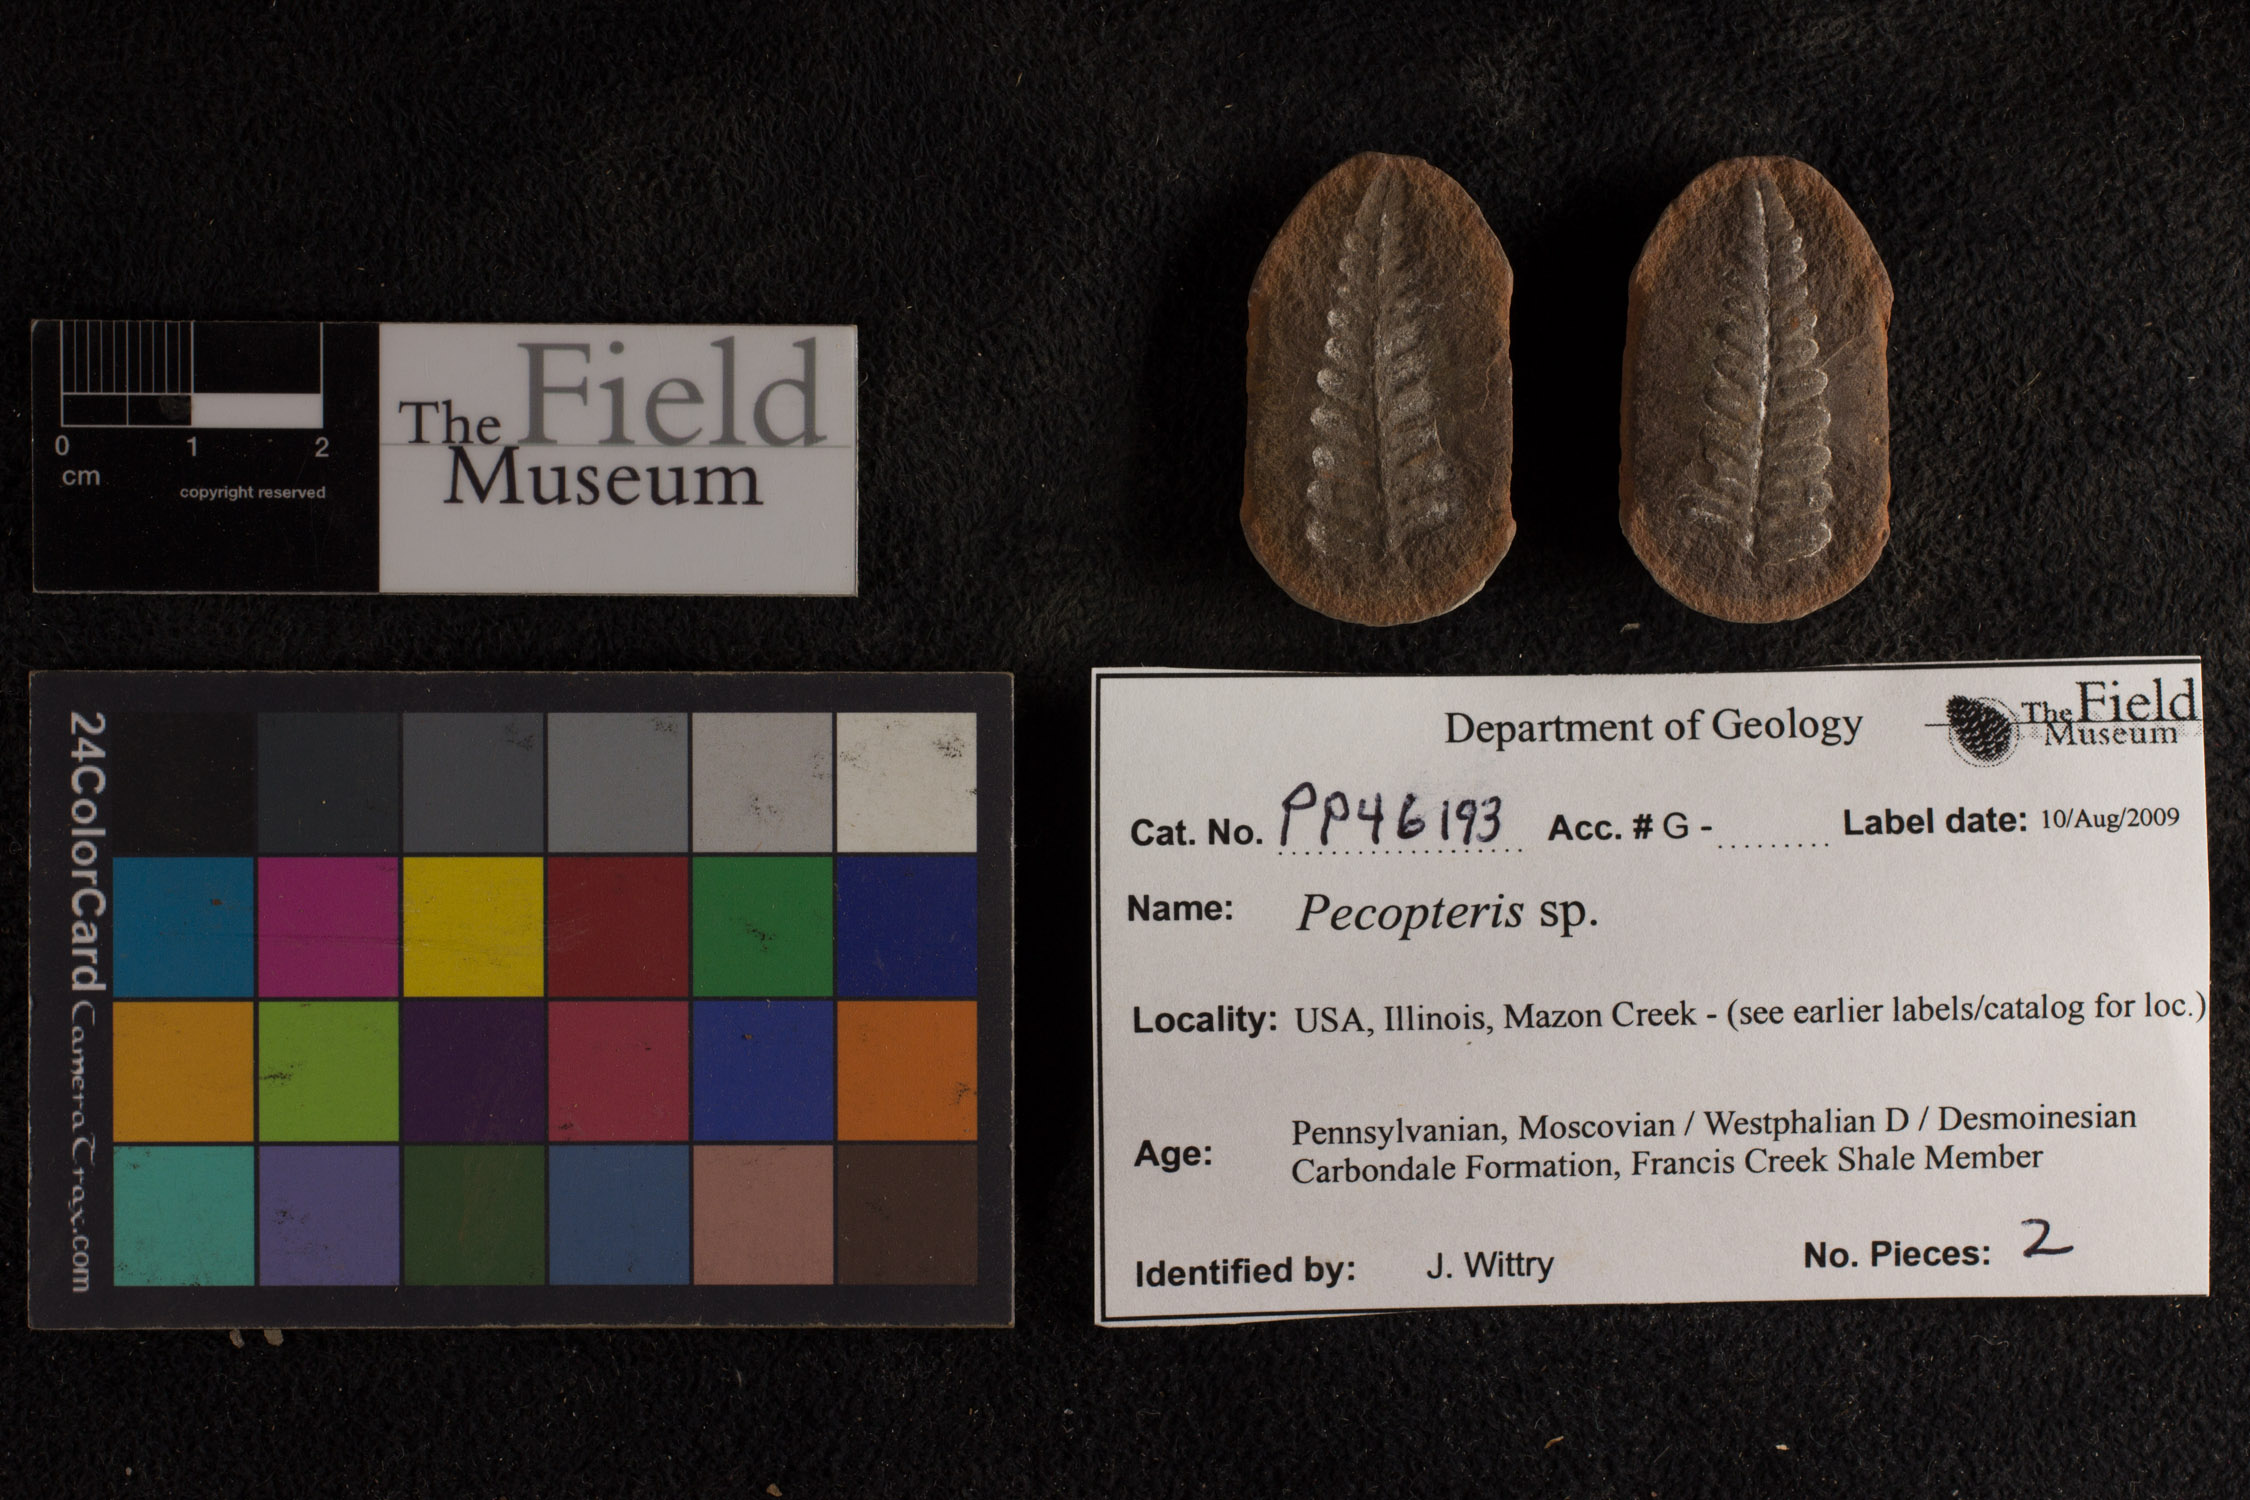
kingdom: Plantae
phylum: Tracheophyta
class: Polypodiopsida
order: Marattiales
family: Asterothecaceae
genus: Pecopteris
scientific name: Pecopteris
